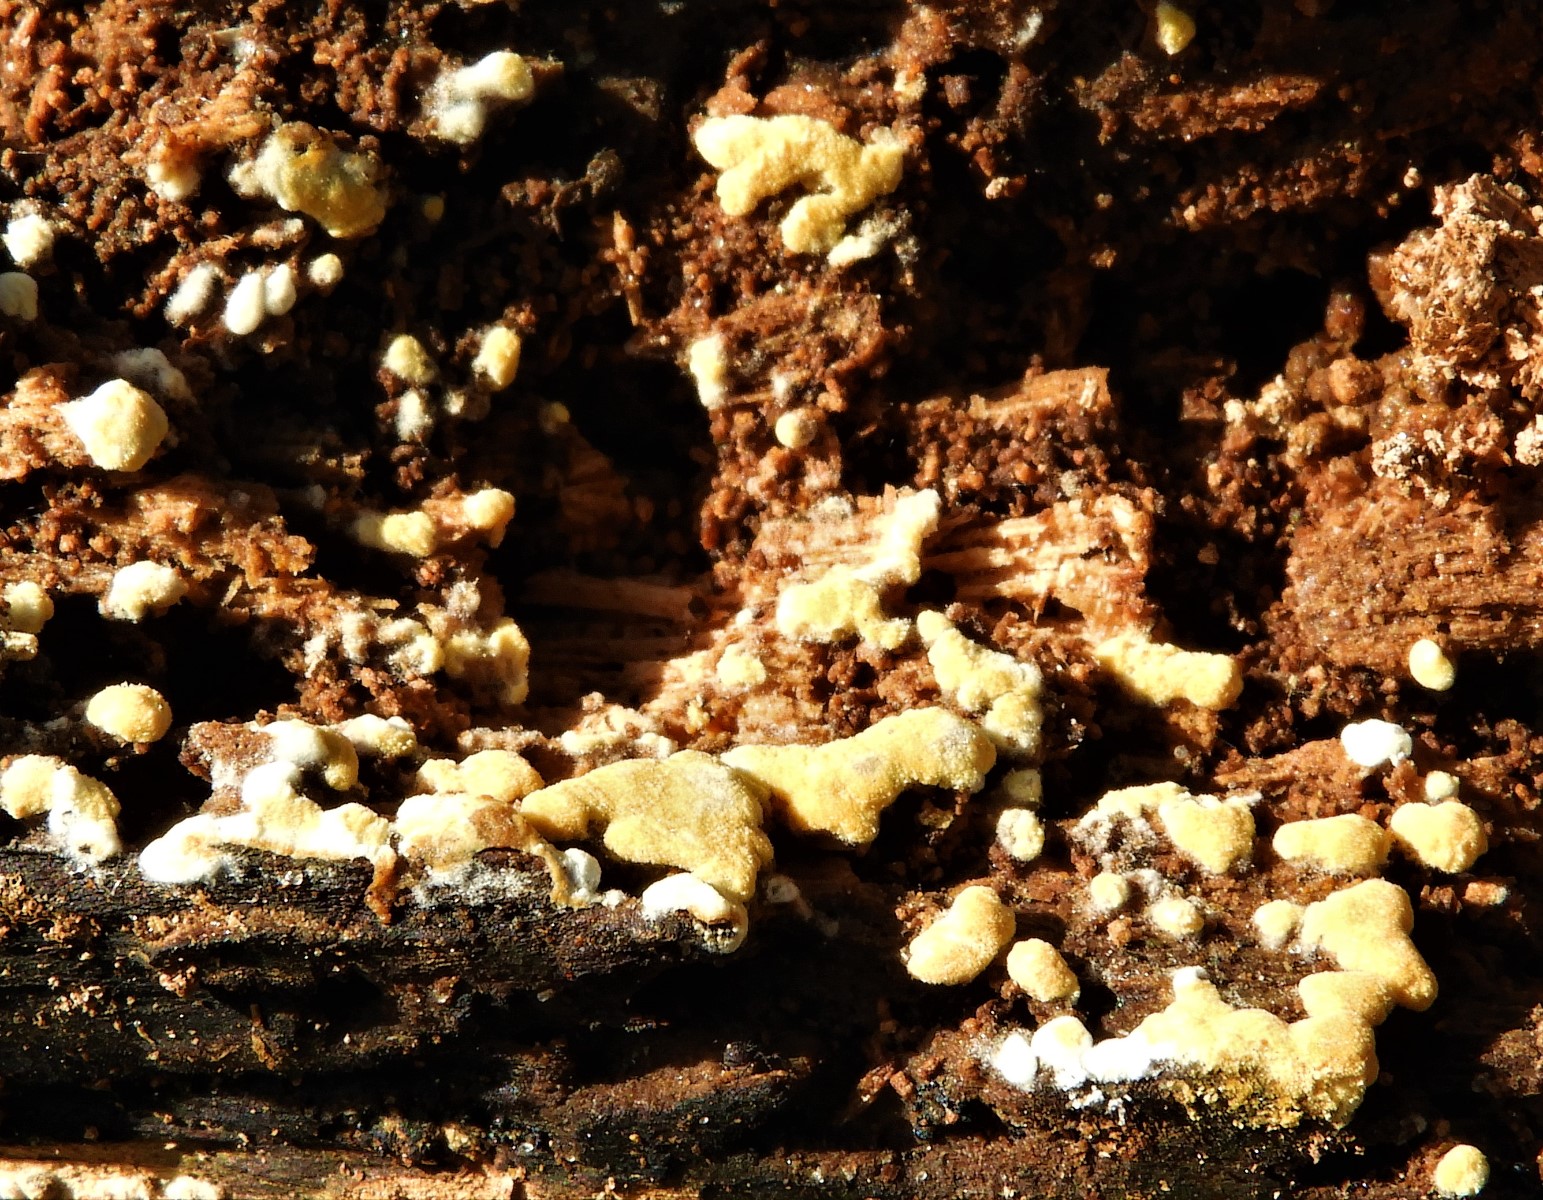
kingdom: Fungi
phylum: Basidiomycota
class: Agaricomycetes
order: Cantharellales
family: Botryobasidiaceae
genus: Botryobasidium
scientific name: Botryobasidium aureum
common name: gylden spindhinde
